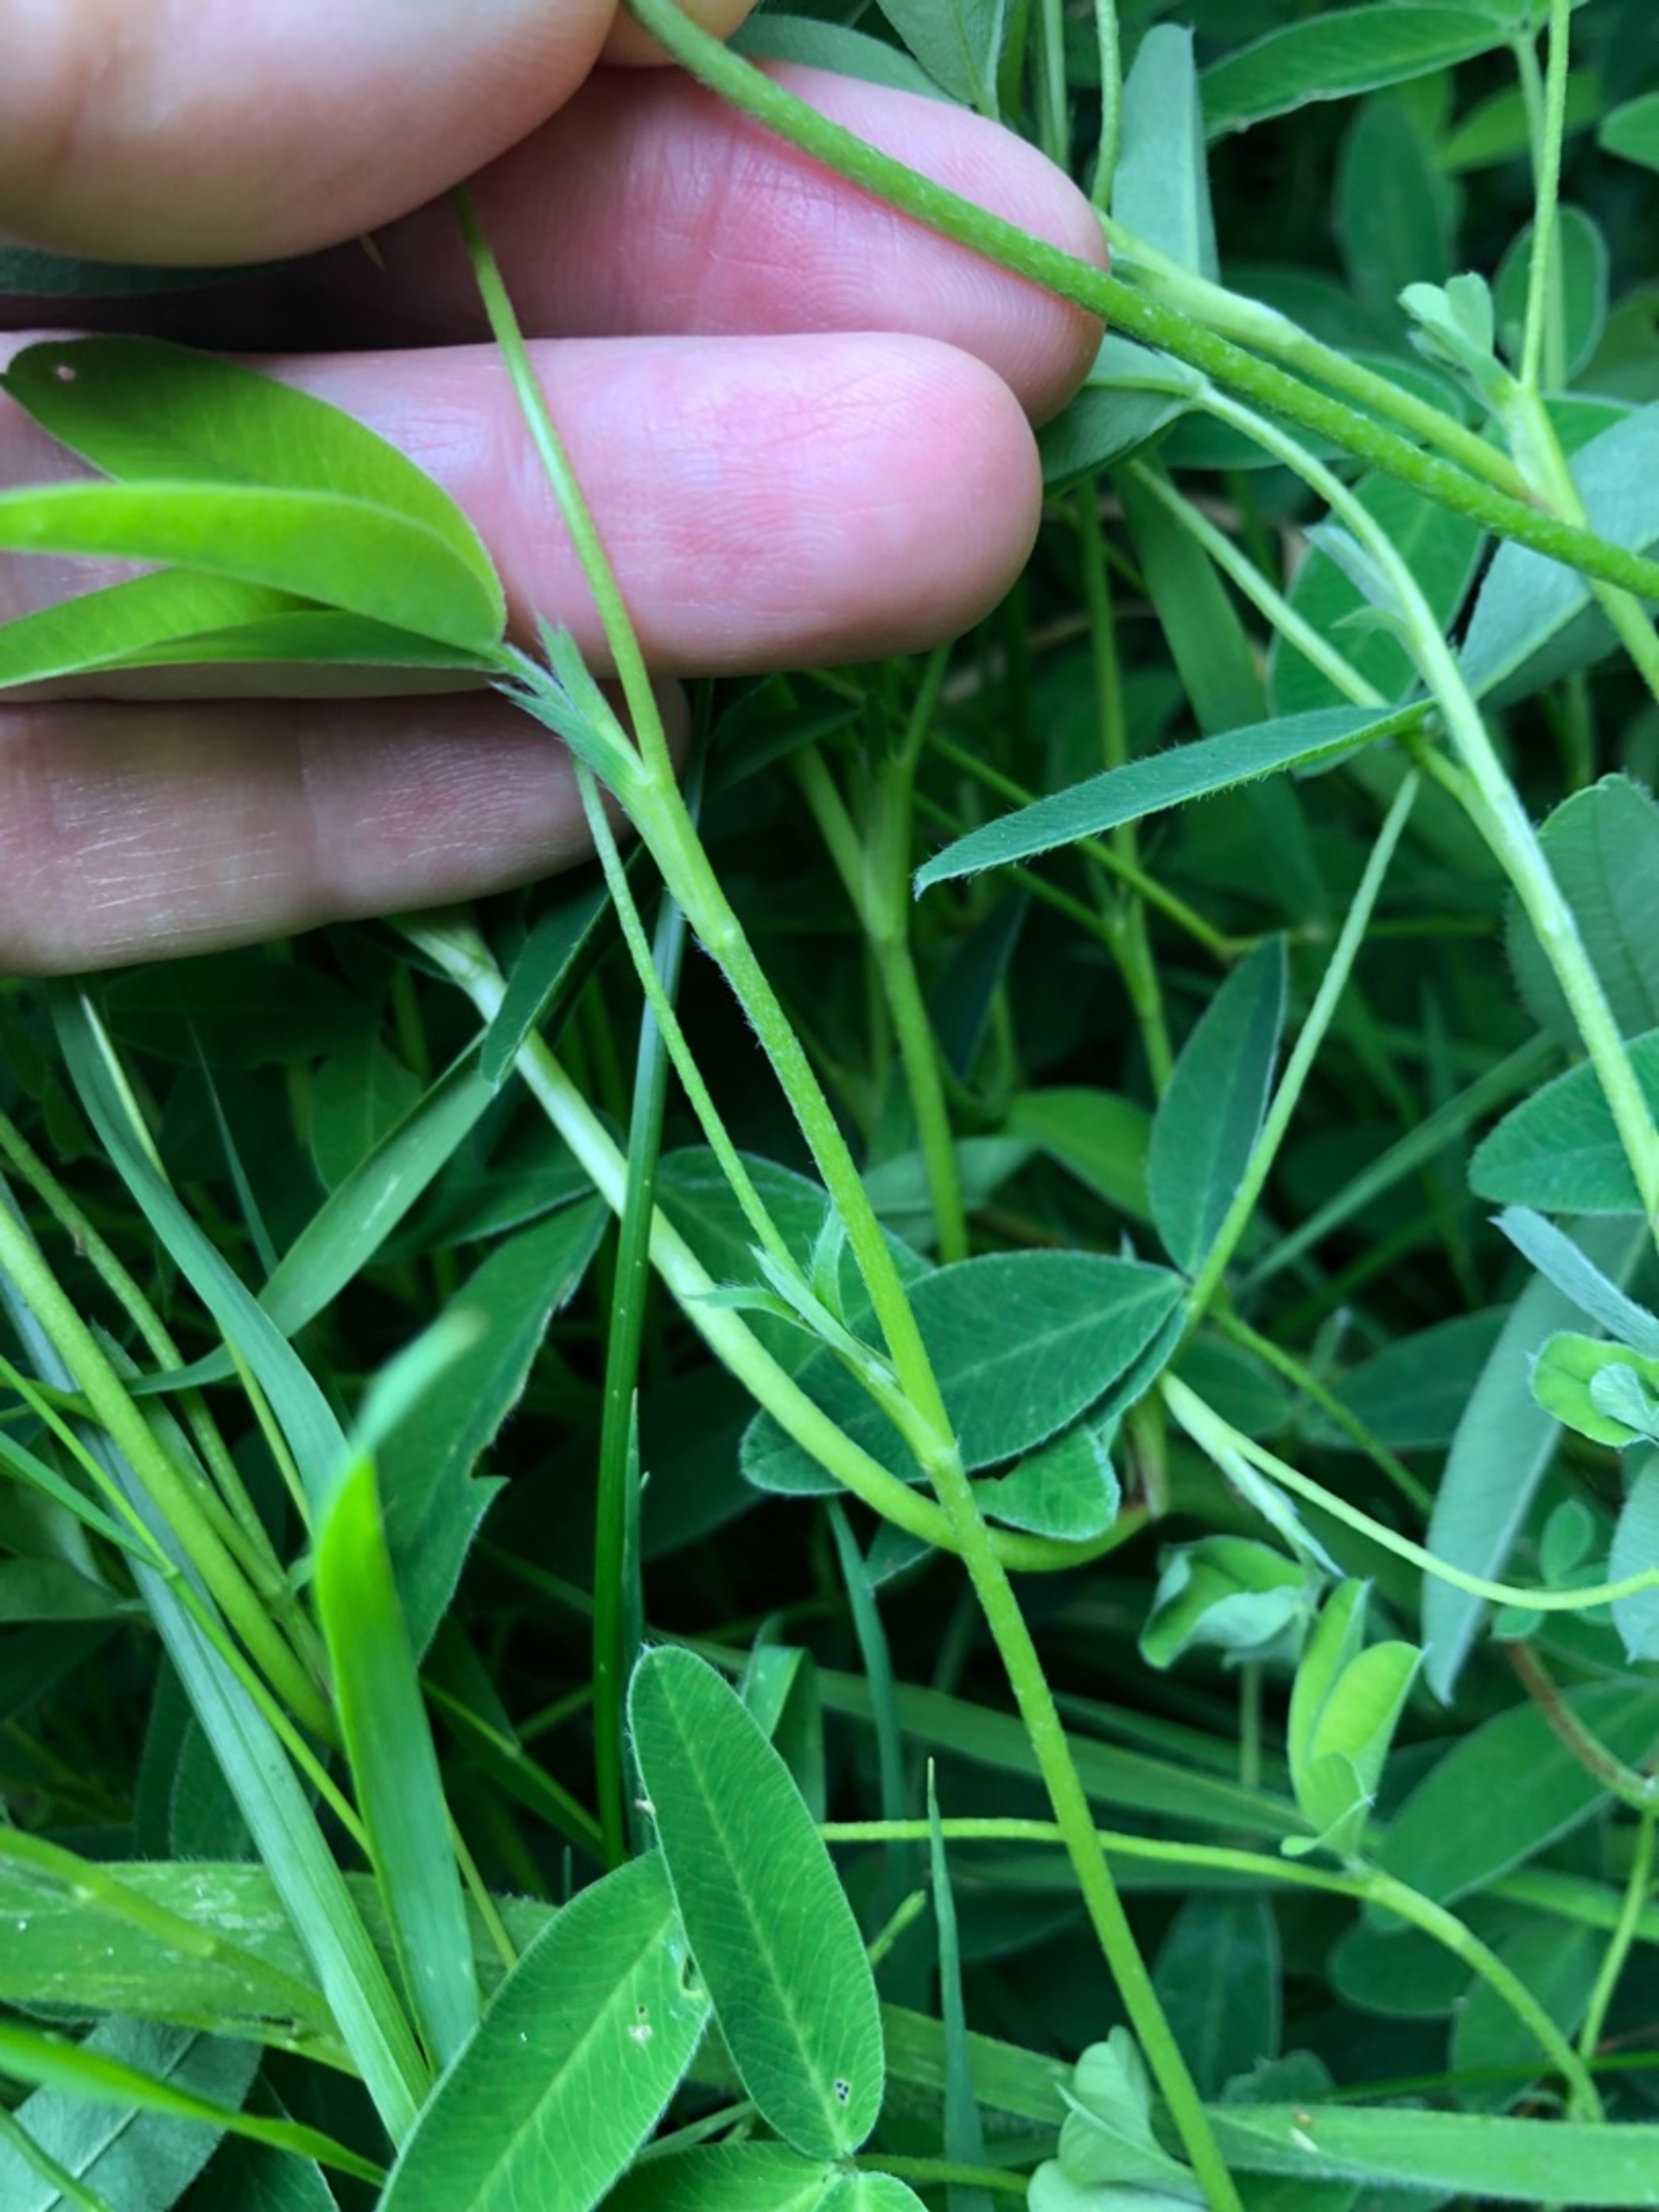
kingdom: Plantae
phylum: Tracheophyta
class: Magnoliopsida
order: Fabales
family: Fabaceae
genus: Trifolium
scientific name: Trifolium medium
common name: Bugtet kløver
